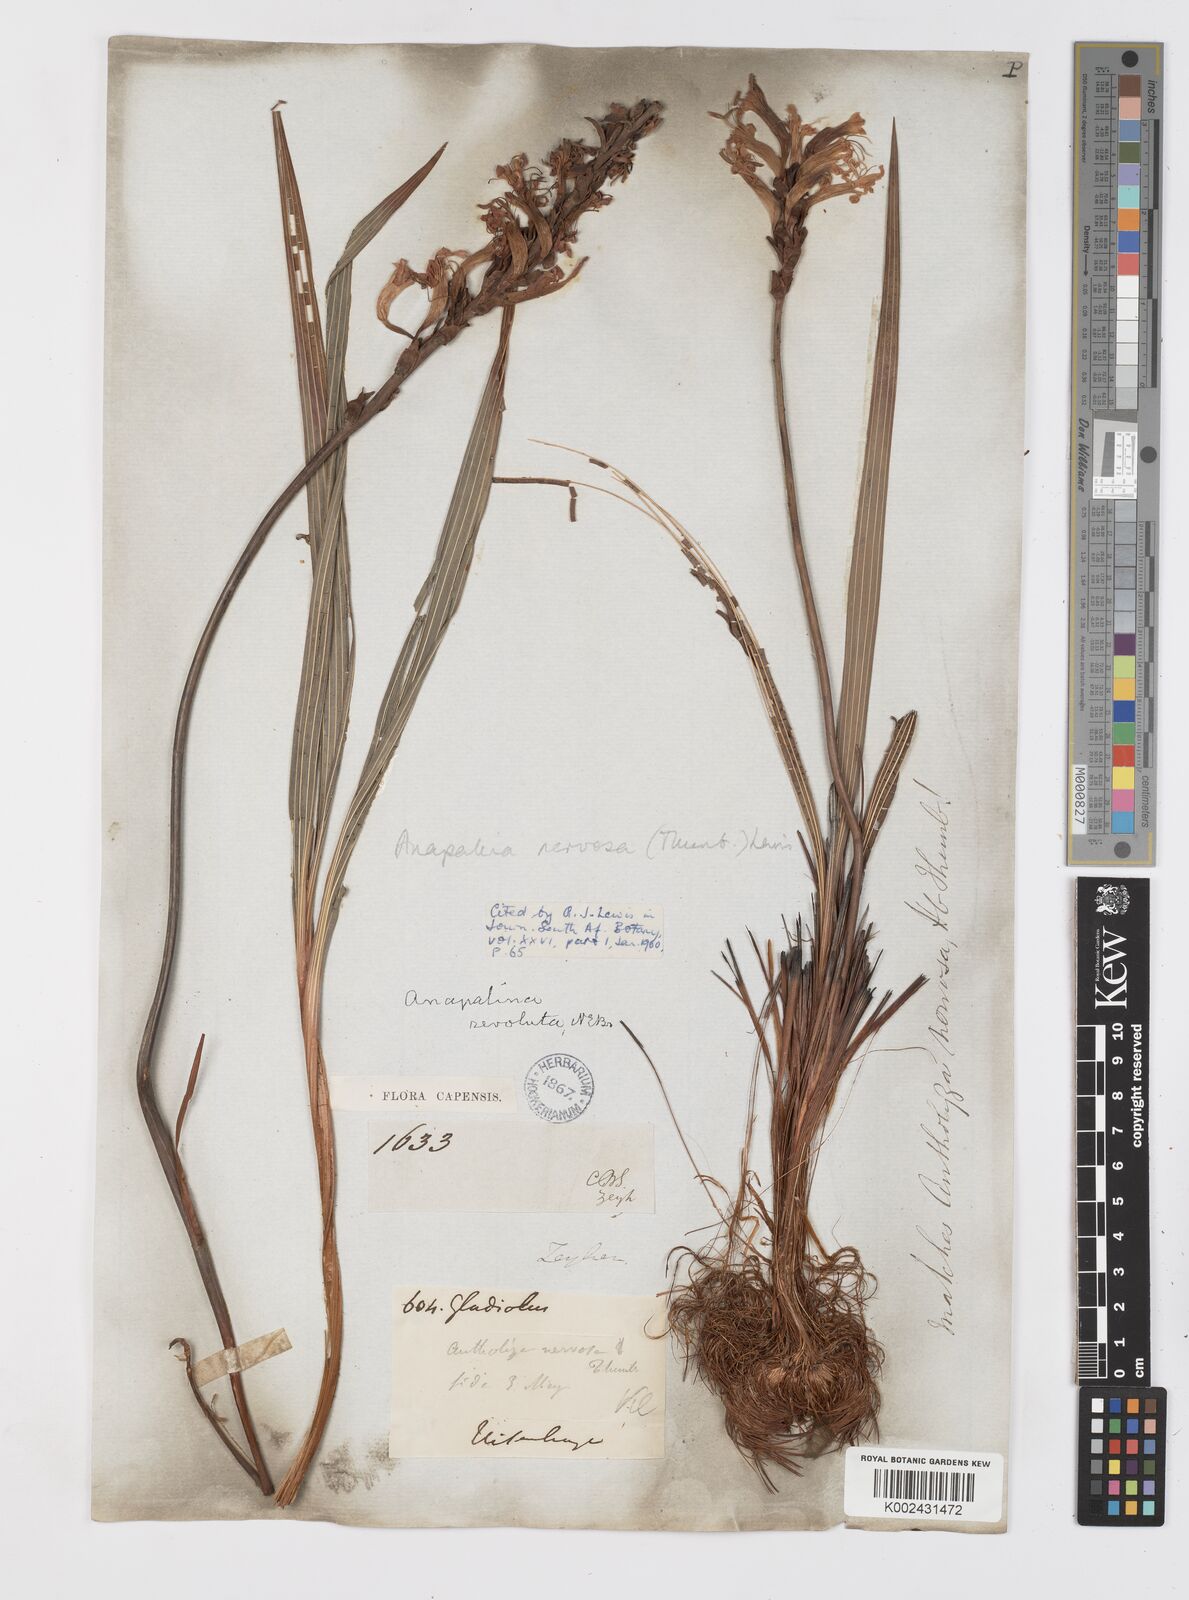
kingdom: Plantae
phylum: Tracheophyta
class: Liliopsida
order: Asparagales
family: Iridaceae
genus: Tritoniopsis
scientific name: Tritoniopsis nervosa
